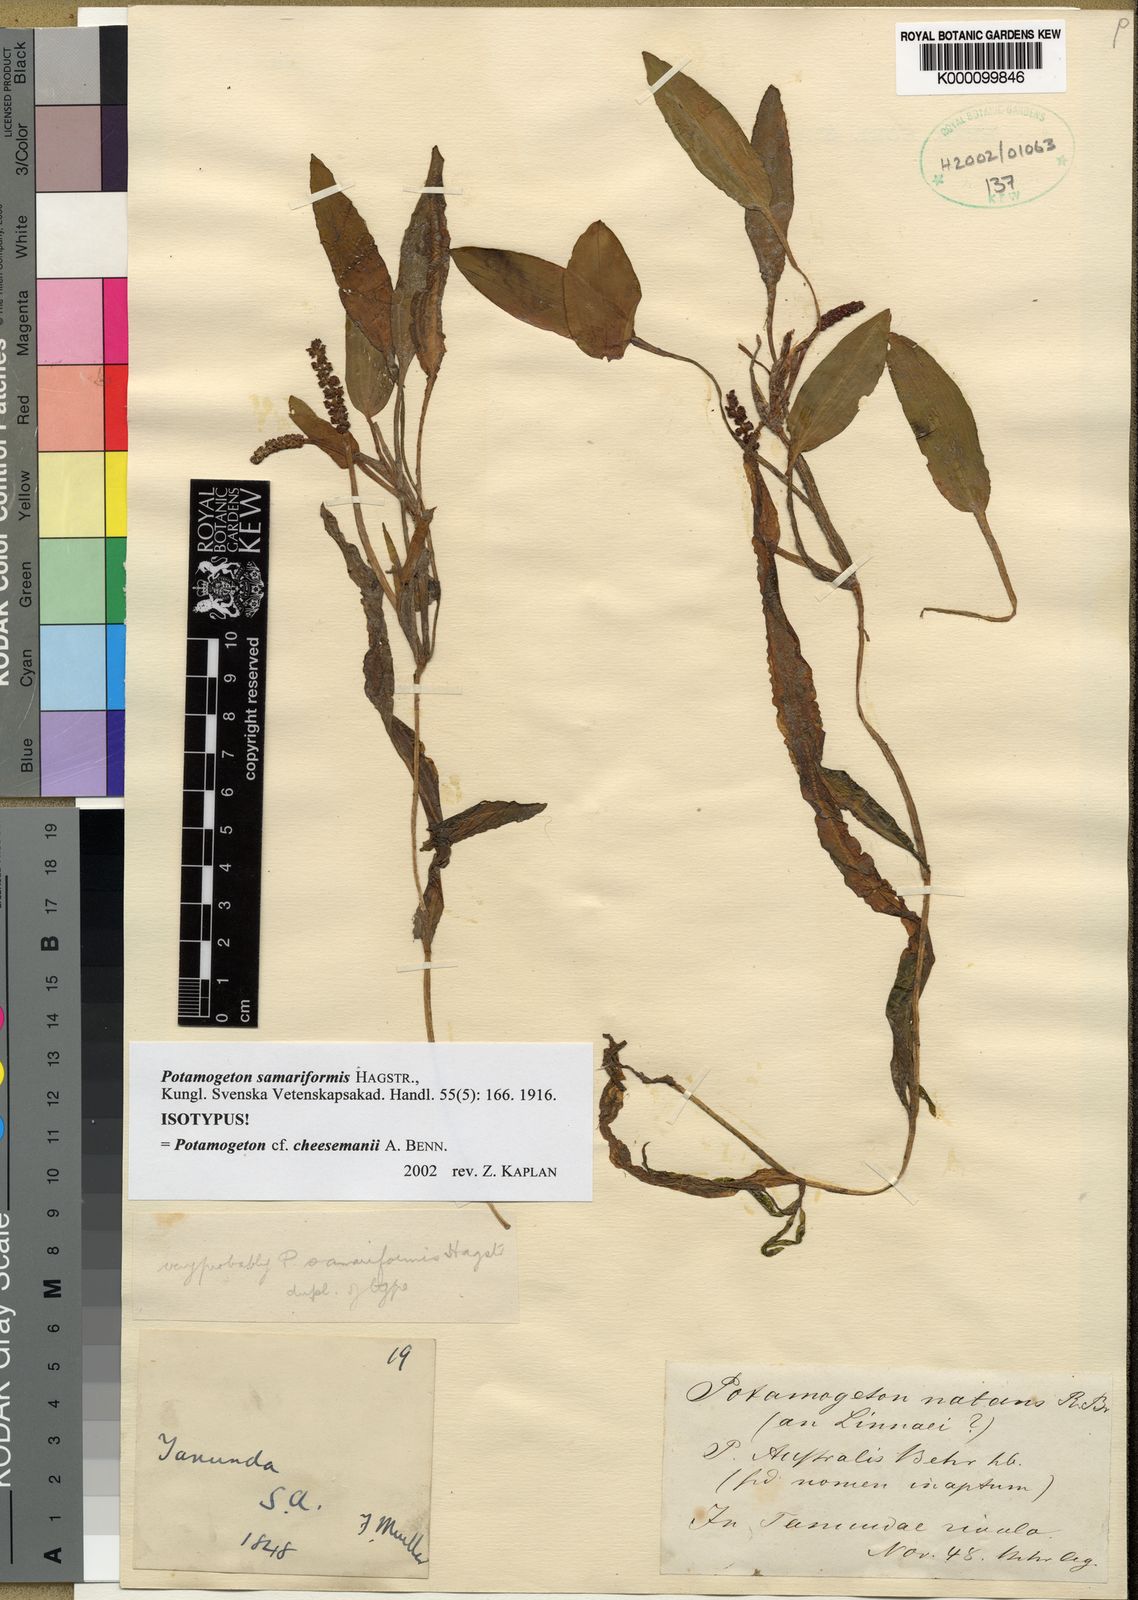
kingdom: Plantae
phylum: Tracheophyta
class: Liliopsida
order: Alismatales
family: Potamogetonaceae
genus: Potamogeton
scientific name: Potamogeton cheesemanii
